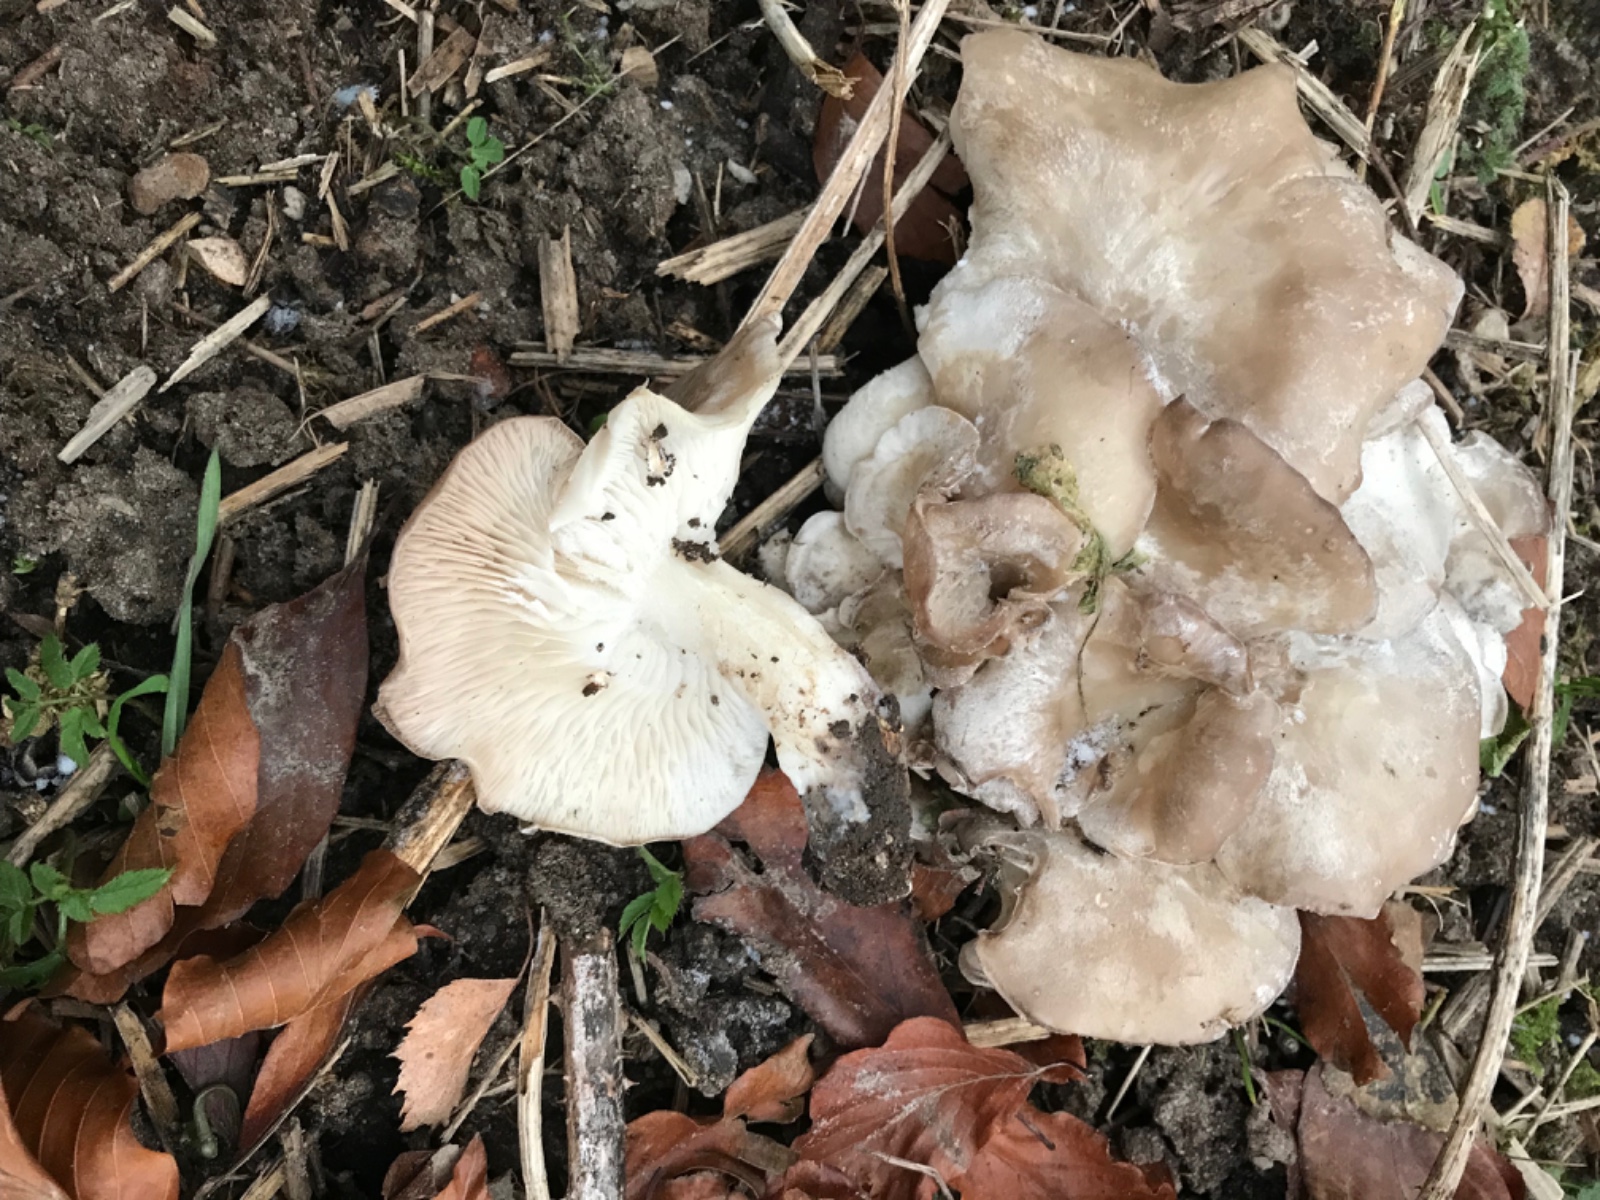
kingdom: Fungi
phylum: Basidiomycota
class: Agaricomycetes
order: Agaricales
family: Tricholomataceae
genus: Leucocybe
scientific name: Leucocybe connata
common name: knippe-tragthat
